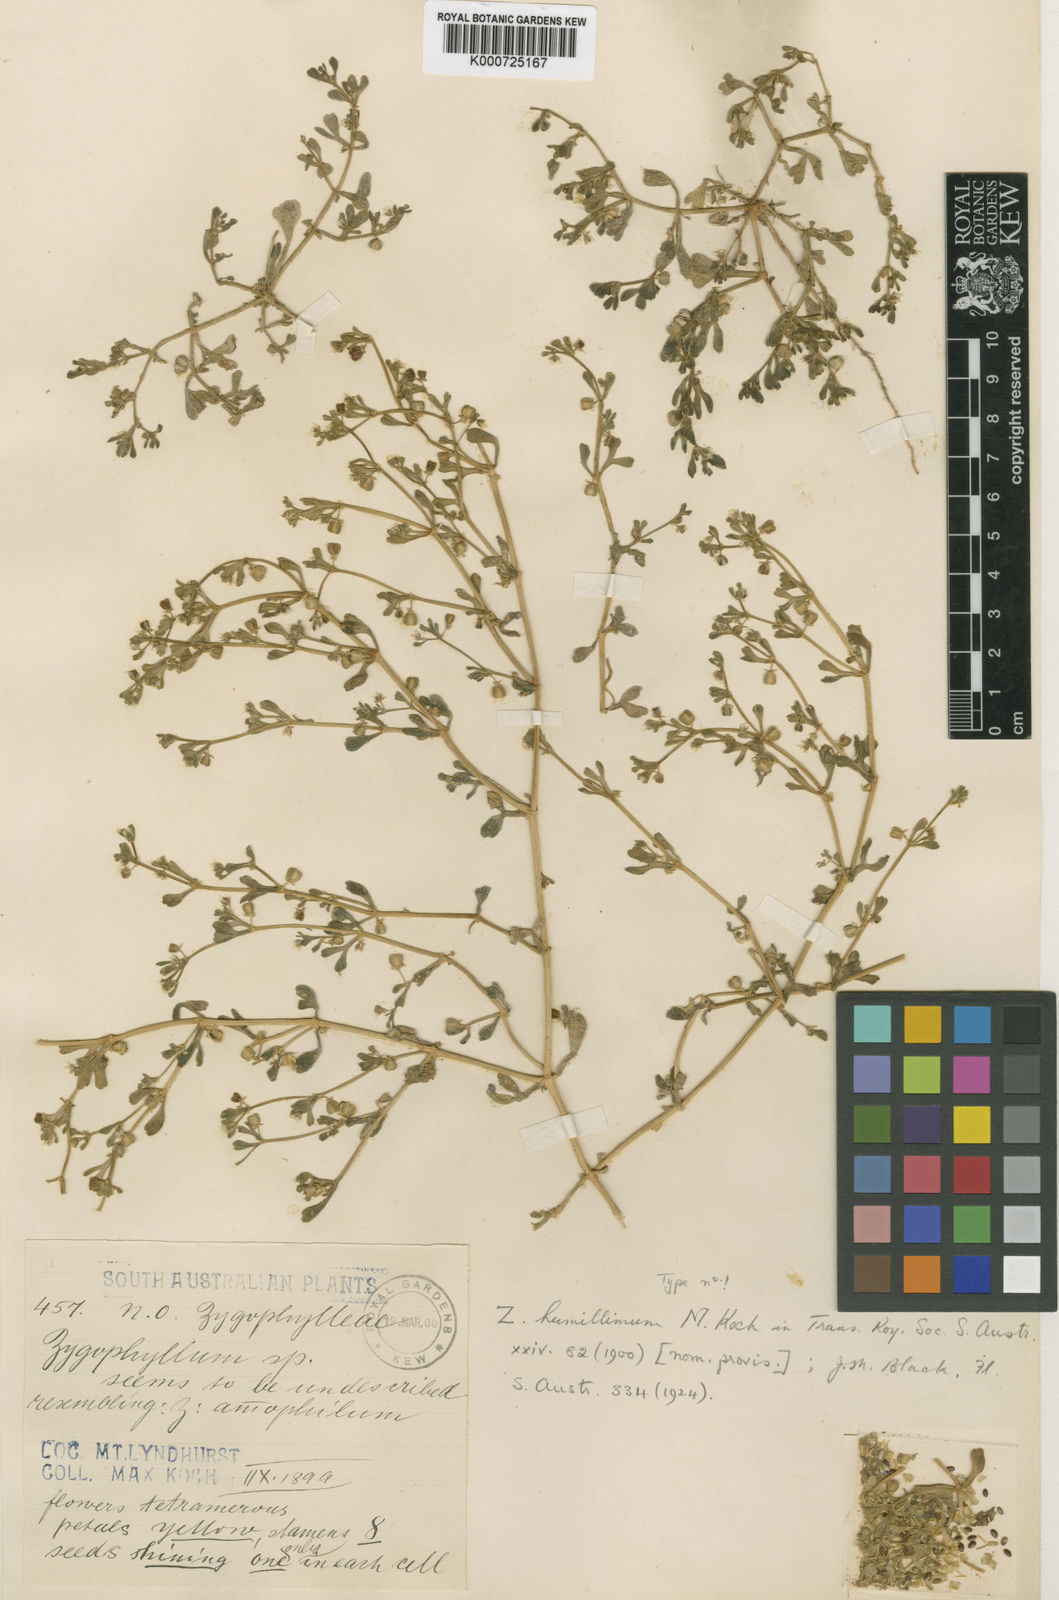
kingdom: Plantae
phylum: Tracheophyta
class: Magnoliopsida
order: Zygophyllales
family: Zygophyllaceae
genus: Roepera
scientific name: Roepera humillima
